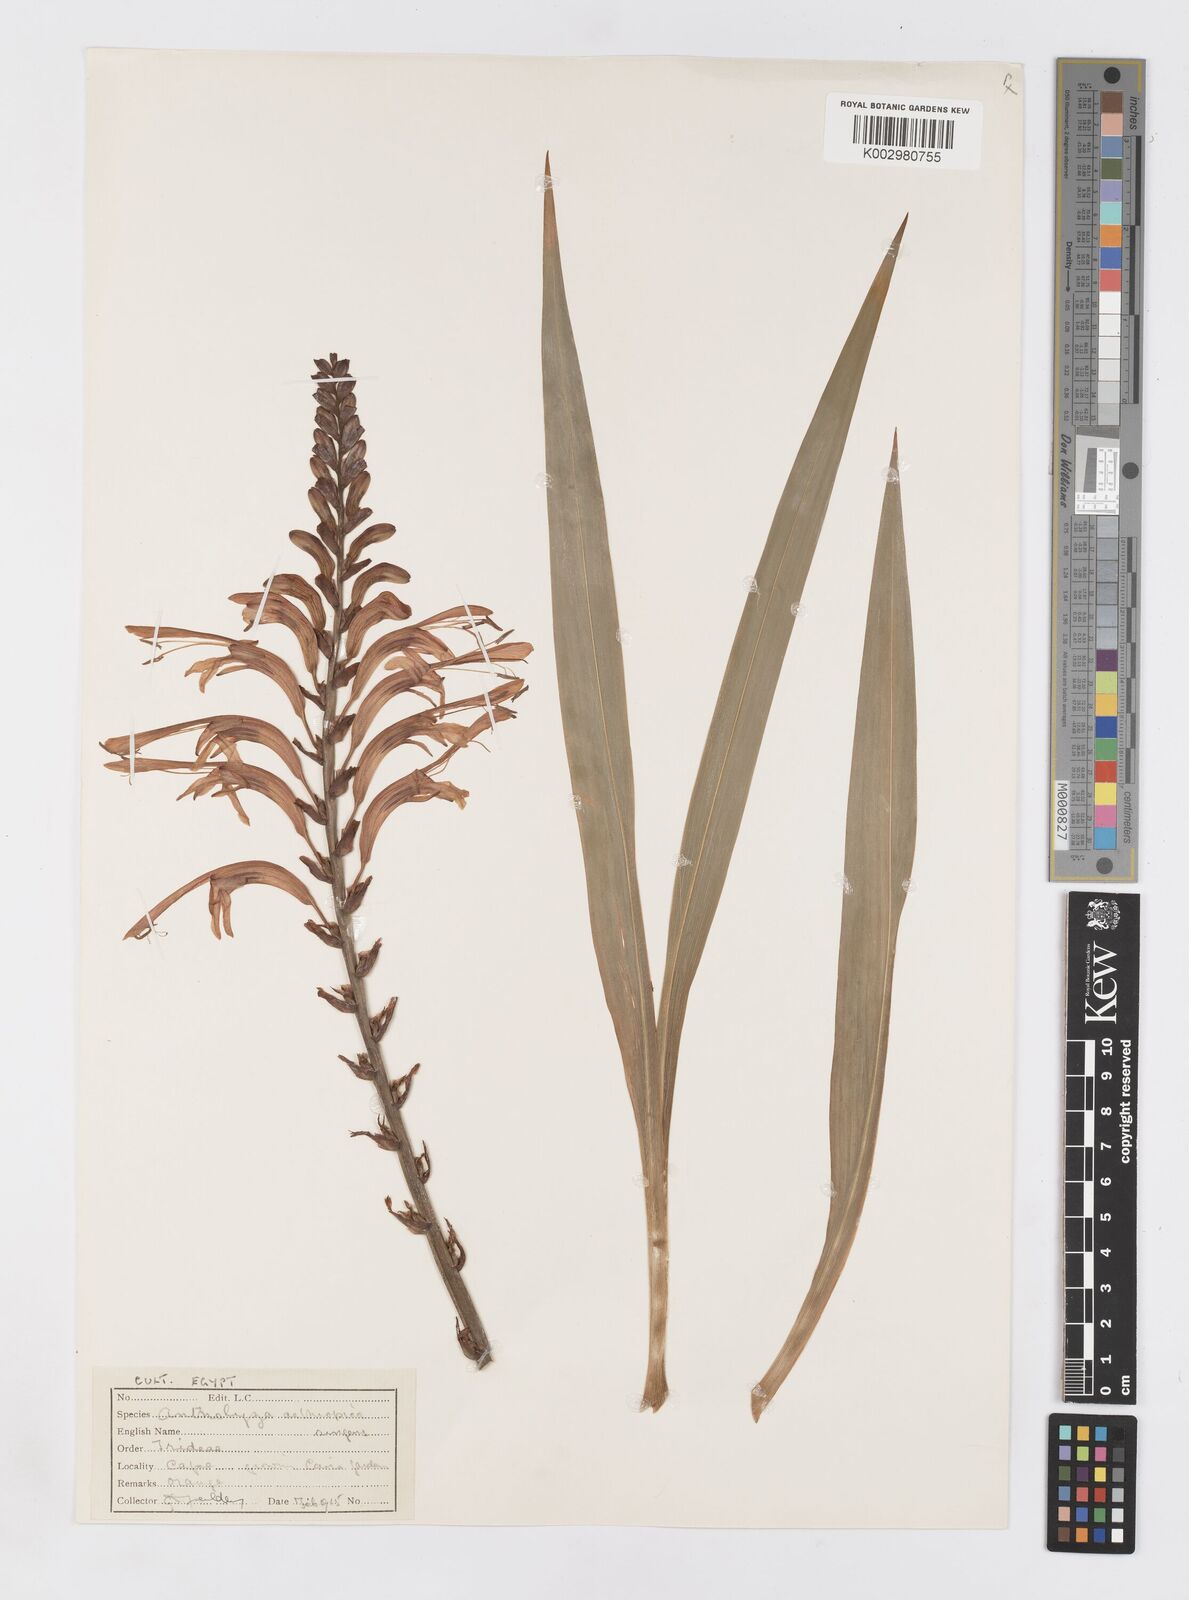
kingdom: Plantae
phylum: Tracheophyta
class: Liliopsida
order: Asparagales
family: Iridaceae
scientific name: Iridaceae
